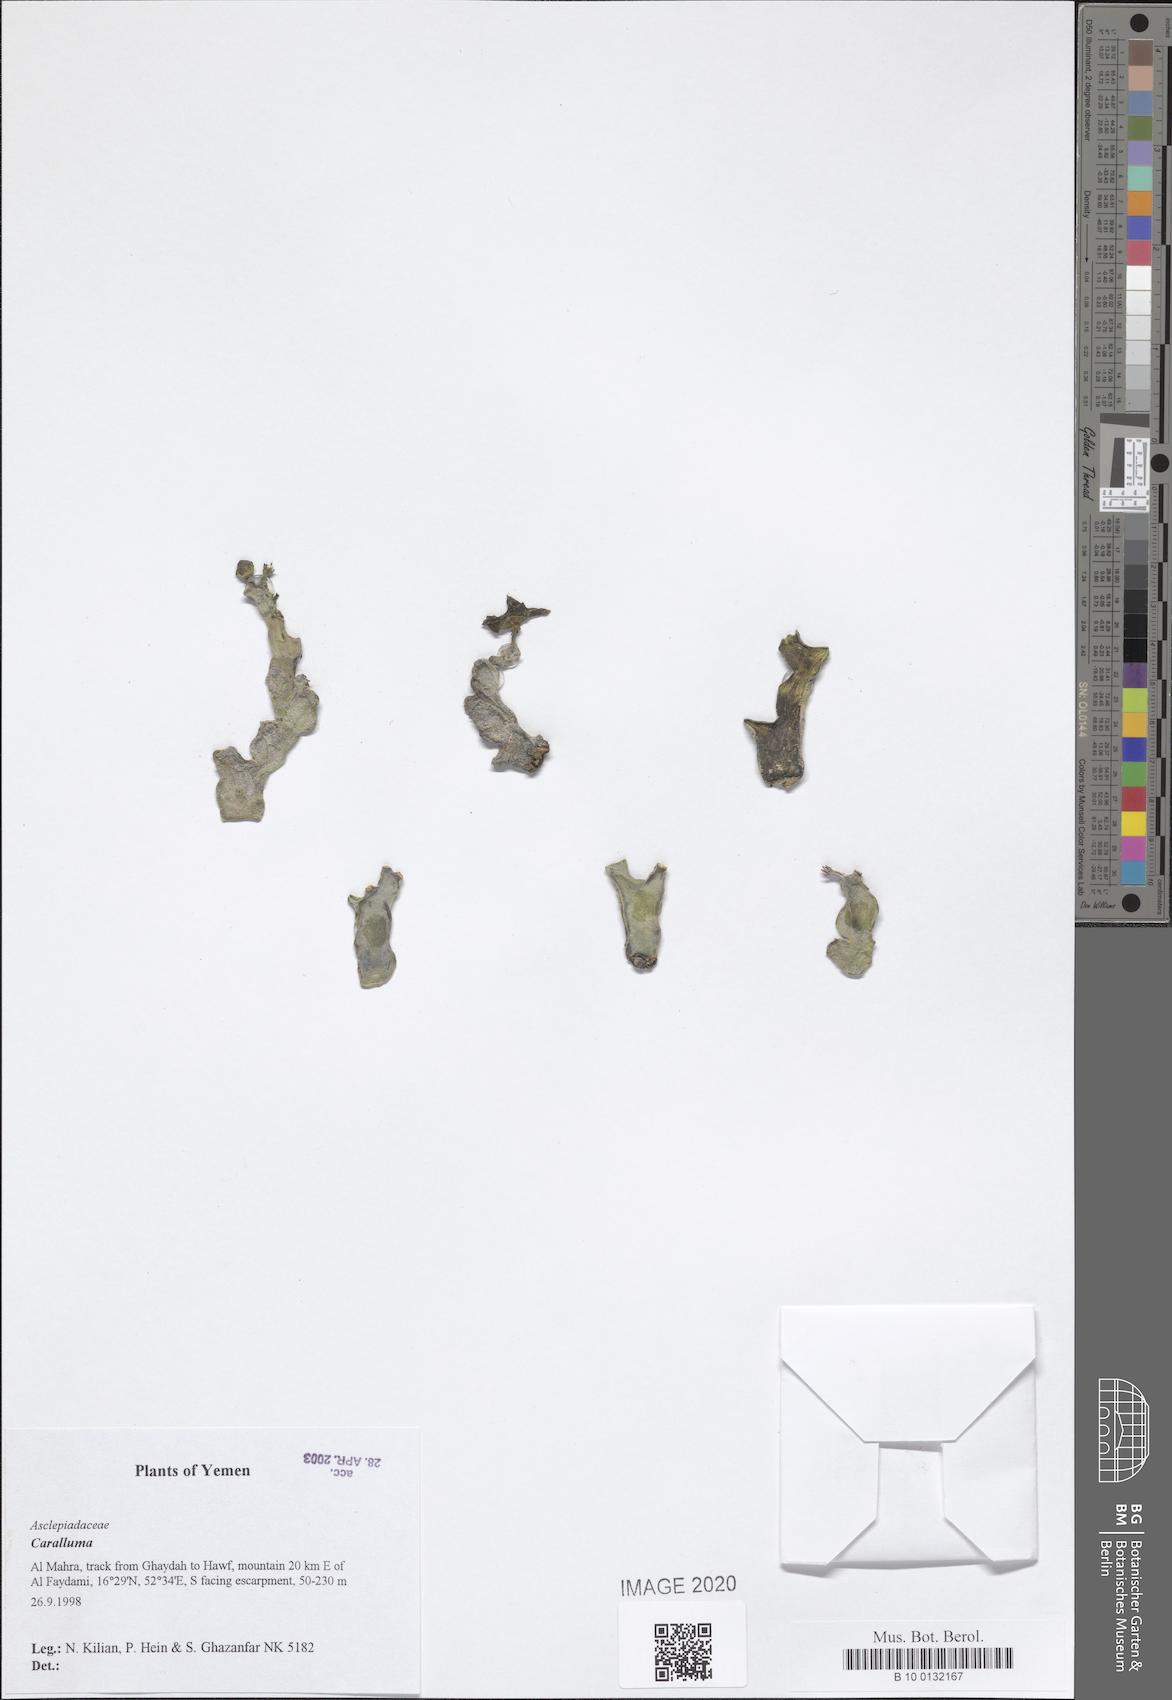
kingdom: Plantae
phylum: Tracheophyta
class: Magnoliopsida
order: Gentianales
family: Apocynaceae
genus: Ceropegia
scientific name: Ceropegia dolichocarpa
